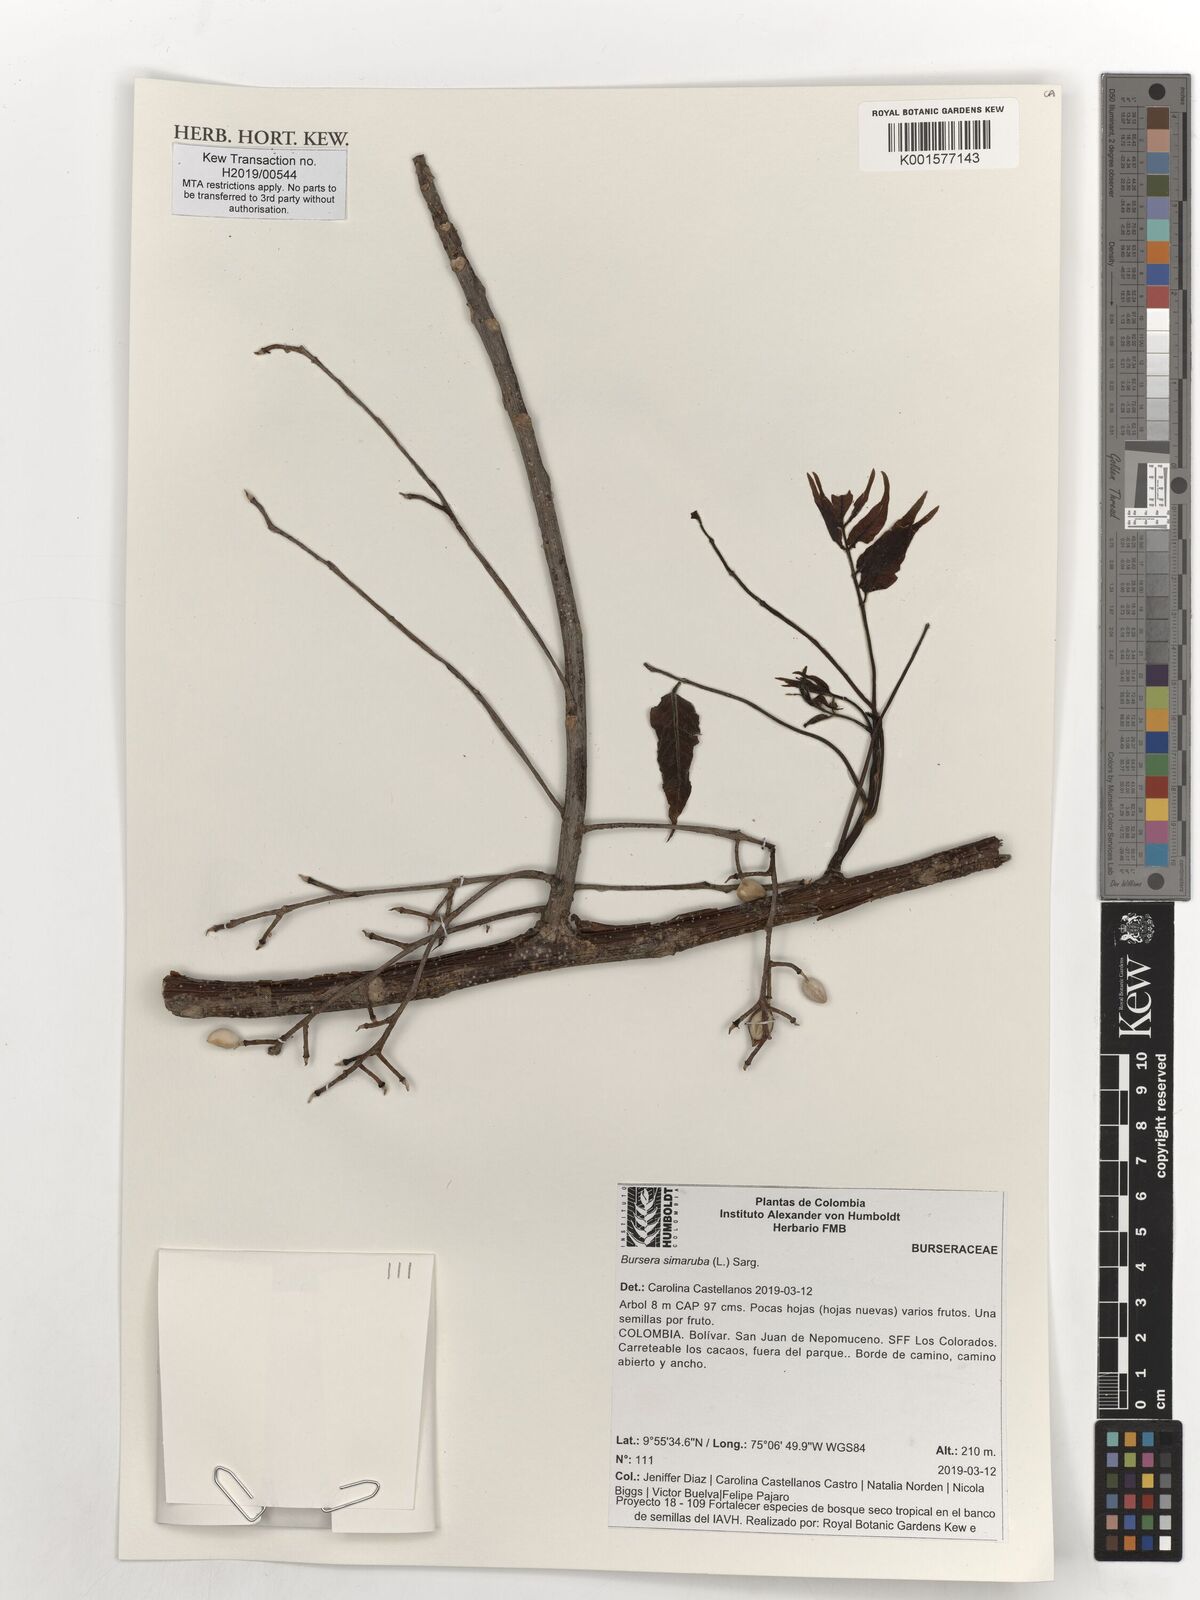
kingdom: Plantae
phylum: Tracheophyta
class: Magnoliopsida
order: Sapindales
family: Burseraceae
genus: Bursera
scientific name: Bursera simaruba
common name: Turpentine tree
